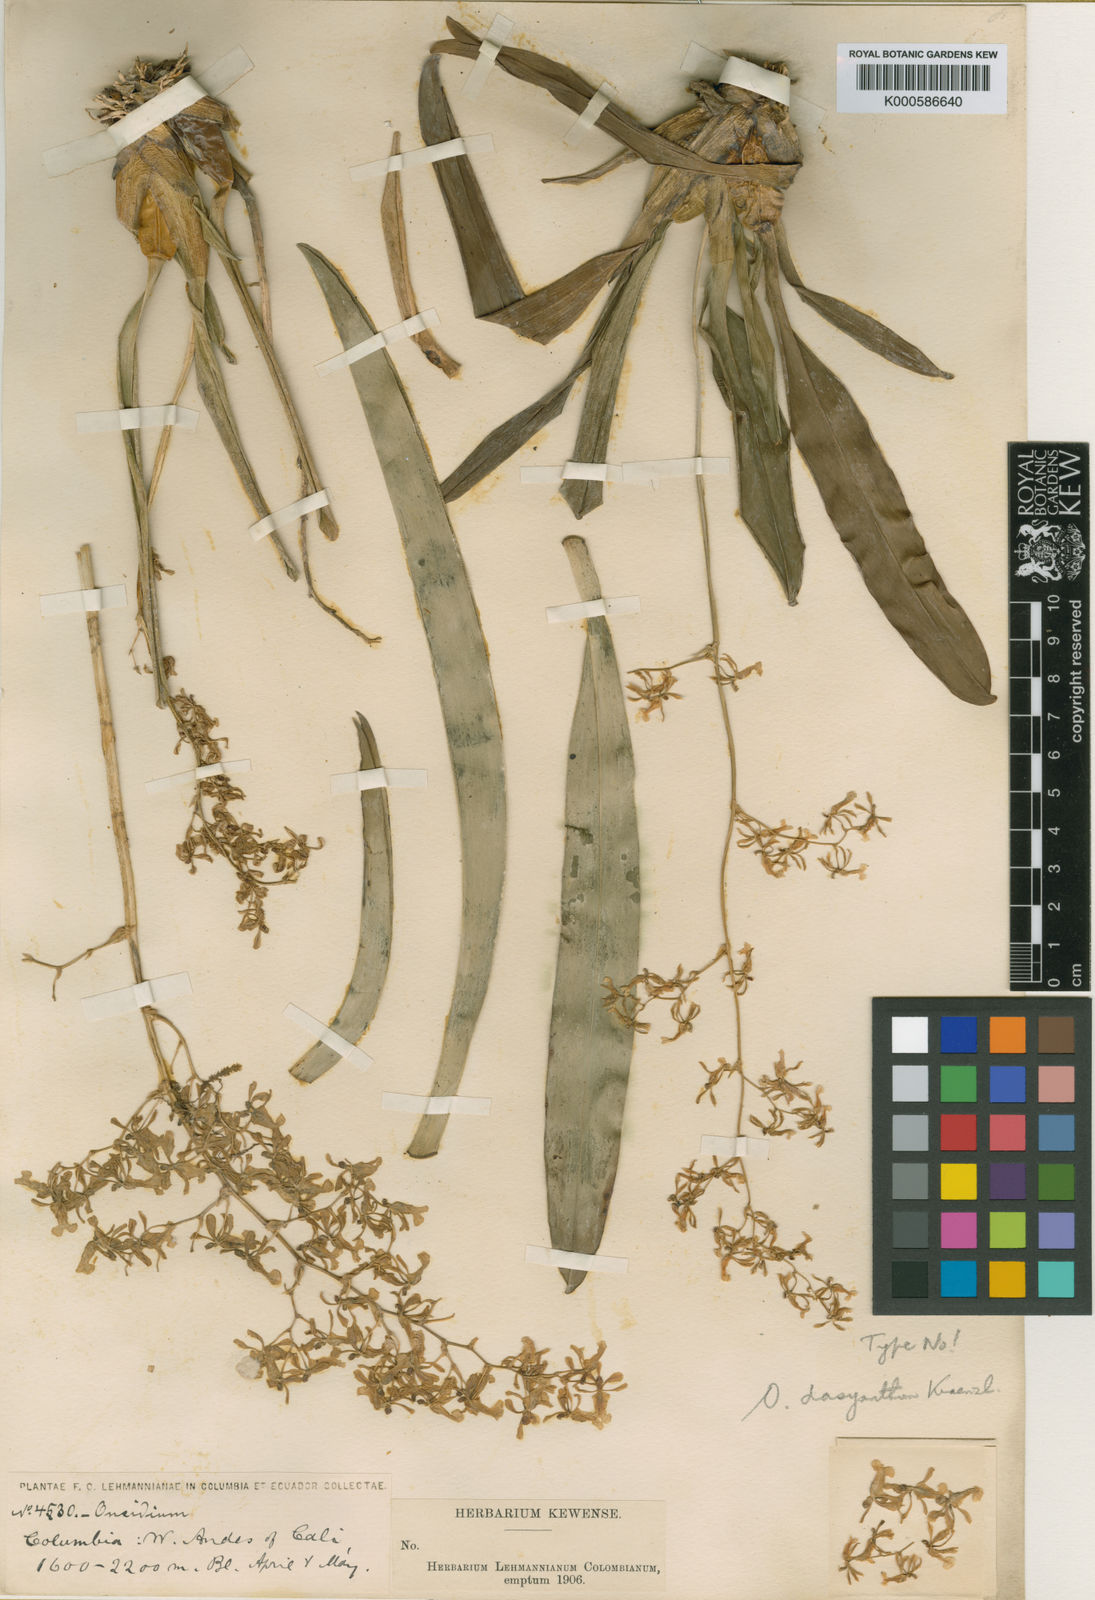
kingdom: Plantae
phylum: Tracheophyta
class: Liliopsida
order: Asparagales
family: Orchidaceae
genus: Oncidium
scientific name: Oncidium chrysomorphum
